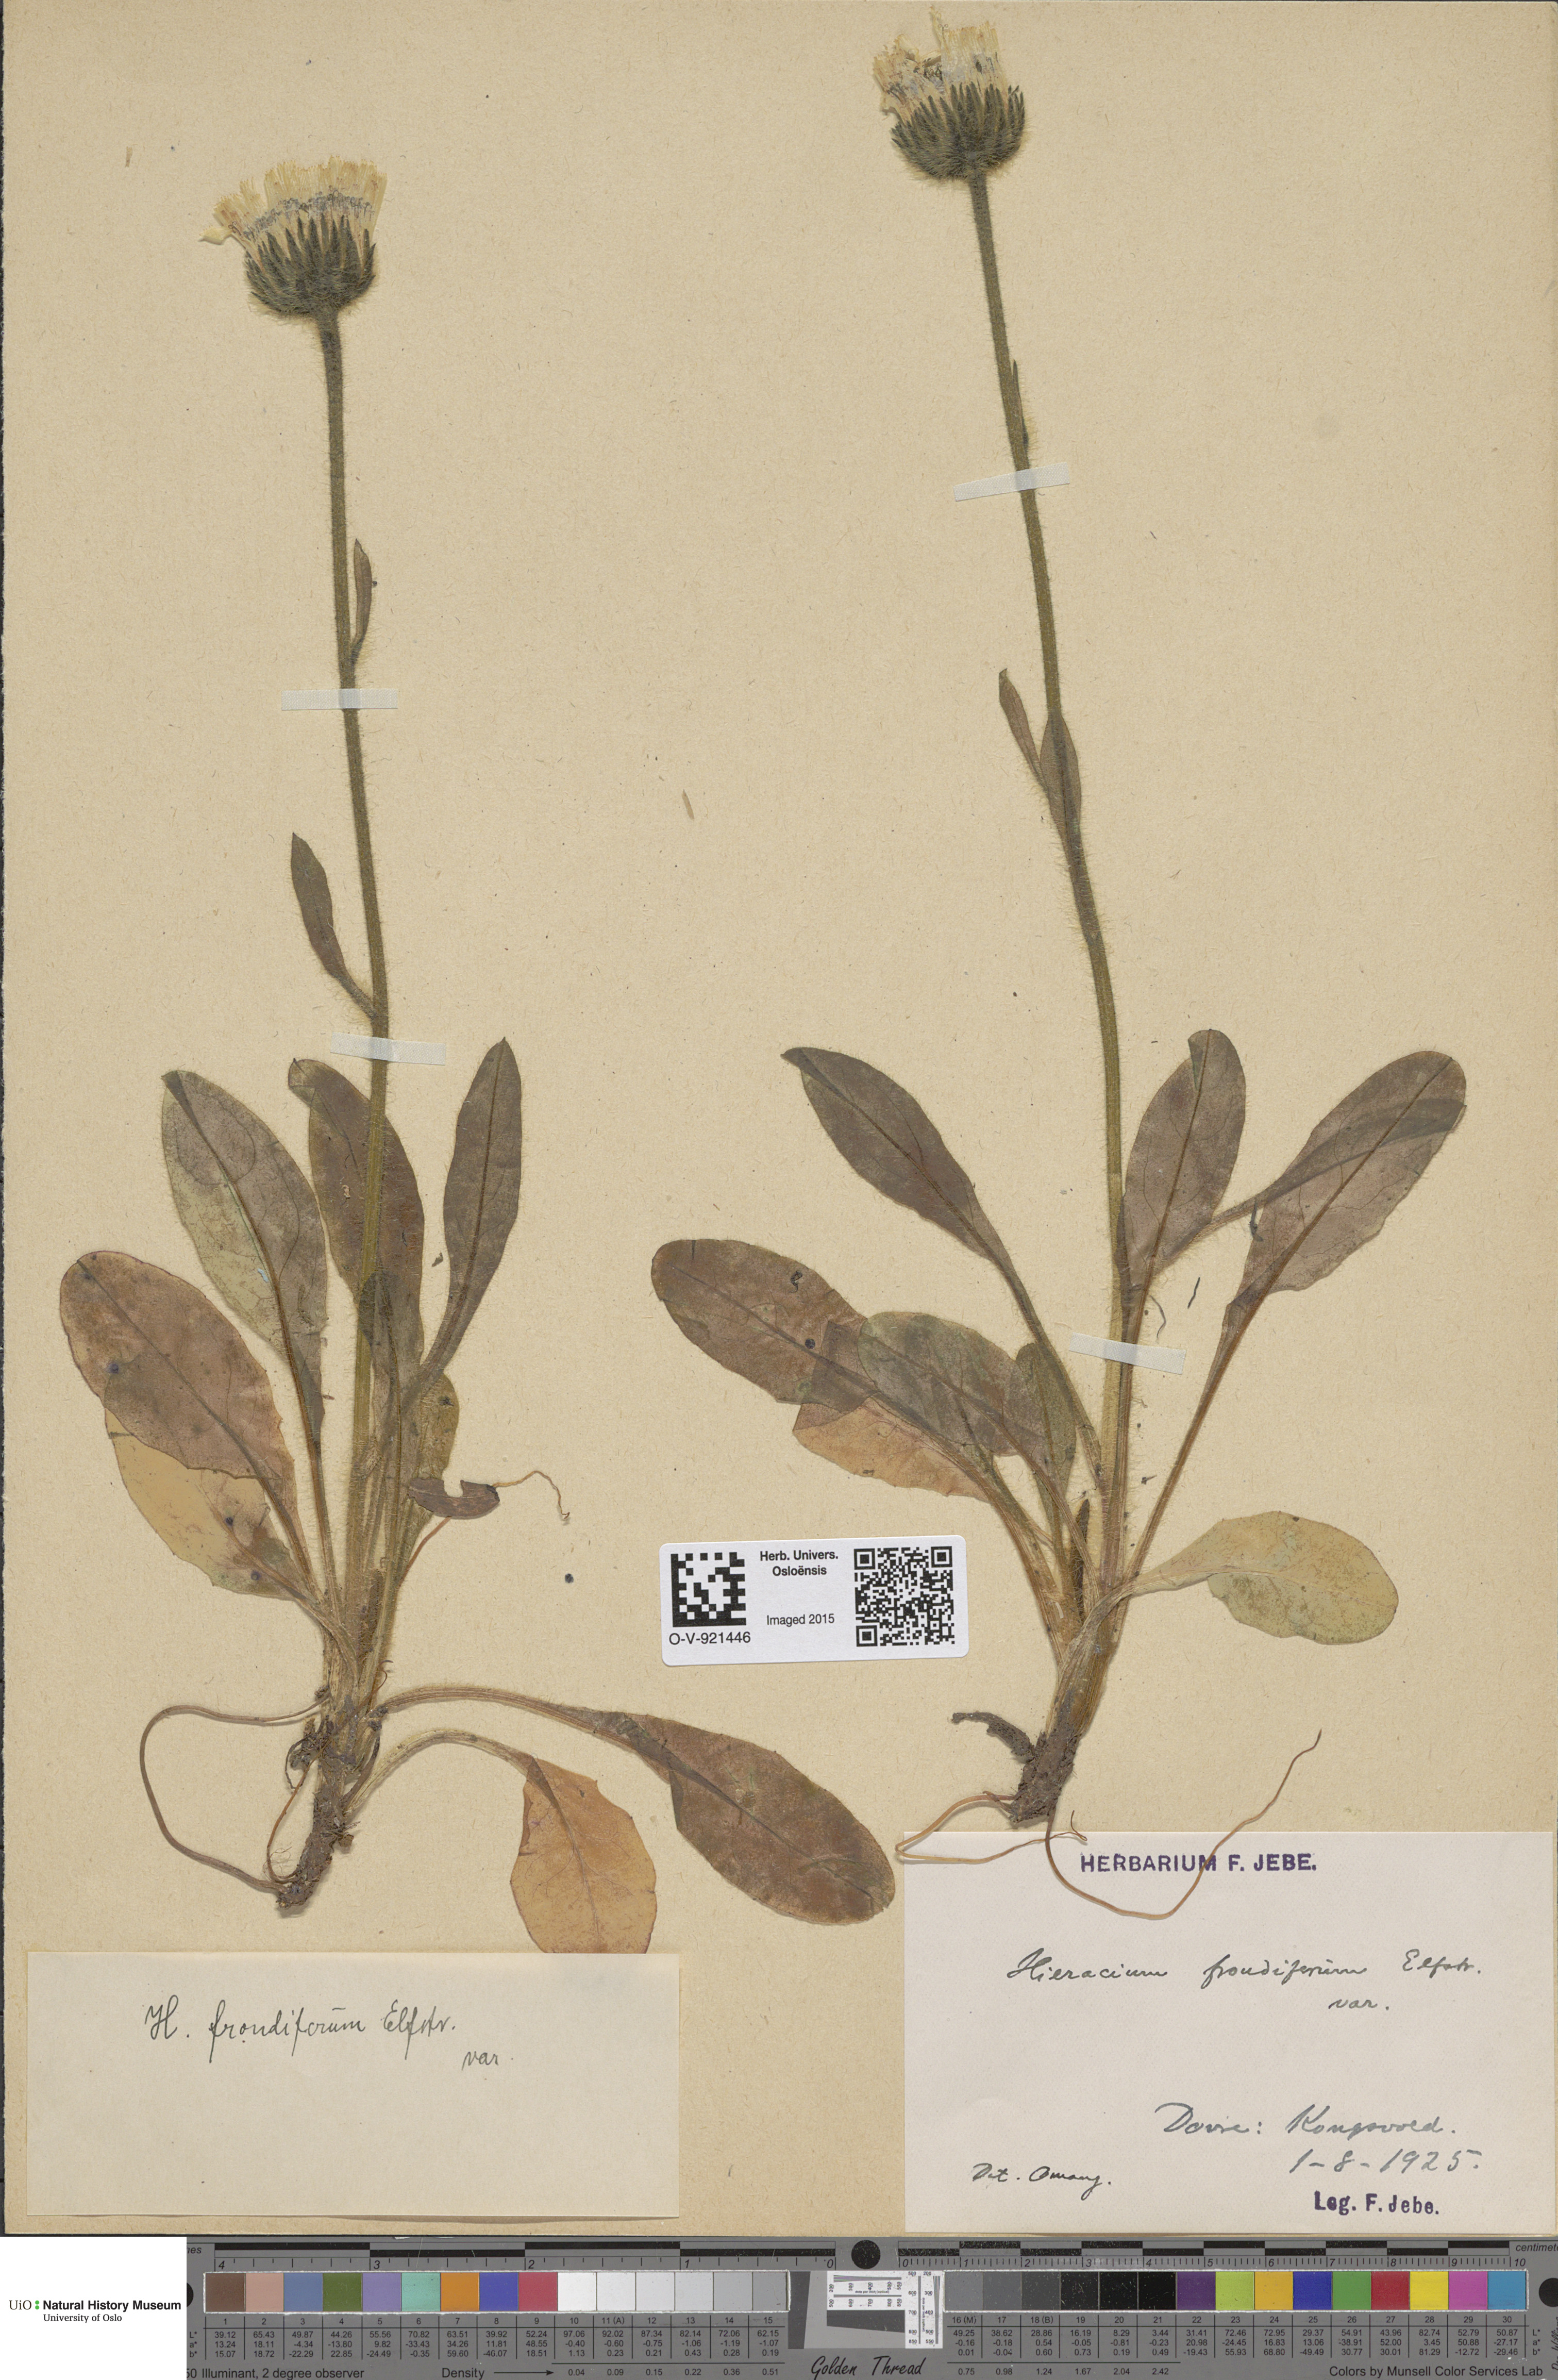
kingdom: Plantae
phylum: Tracheophyta
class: Magnoliopsida
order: Asterales
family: Asteraceae
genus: Hieracium
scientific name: Hieracium alpinum
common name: Alpine hawkweed
